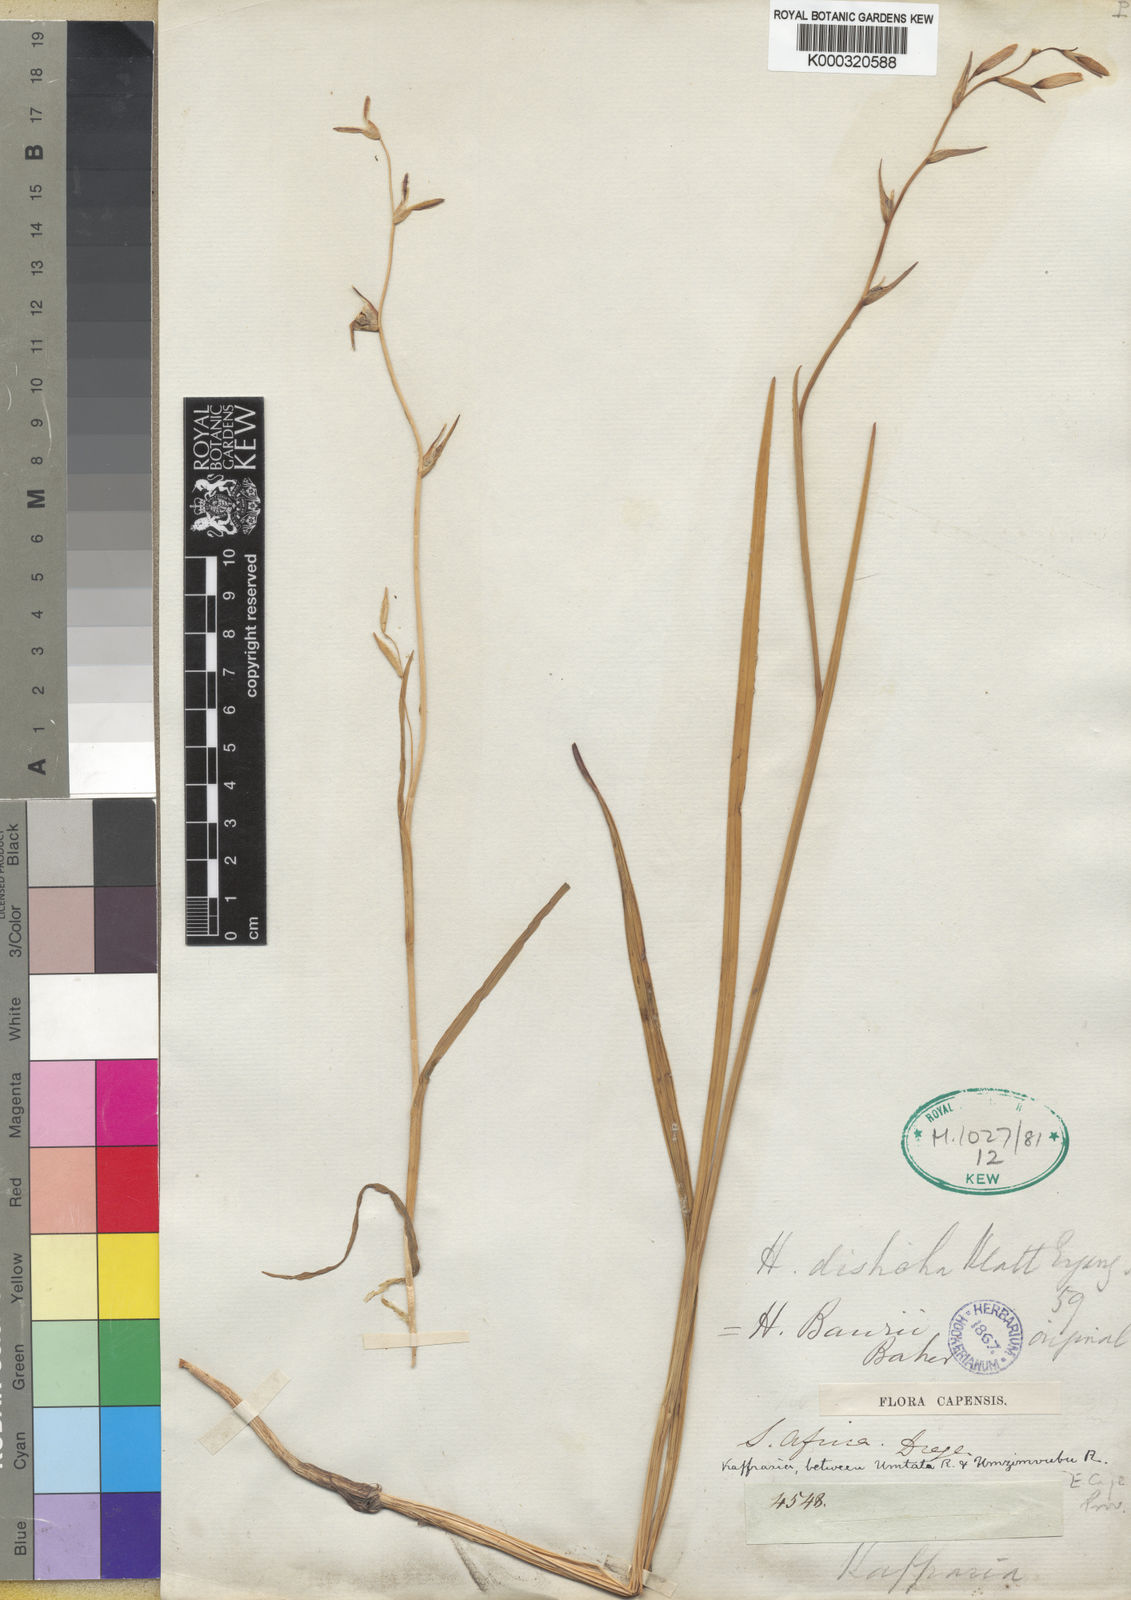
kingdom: Plantae
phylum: Tracheophyta
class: Liliopsida
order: Asparagales
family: Iridaceae
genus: Hesperantha
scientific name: Hesperantha baurii
